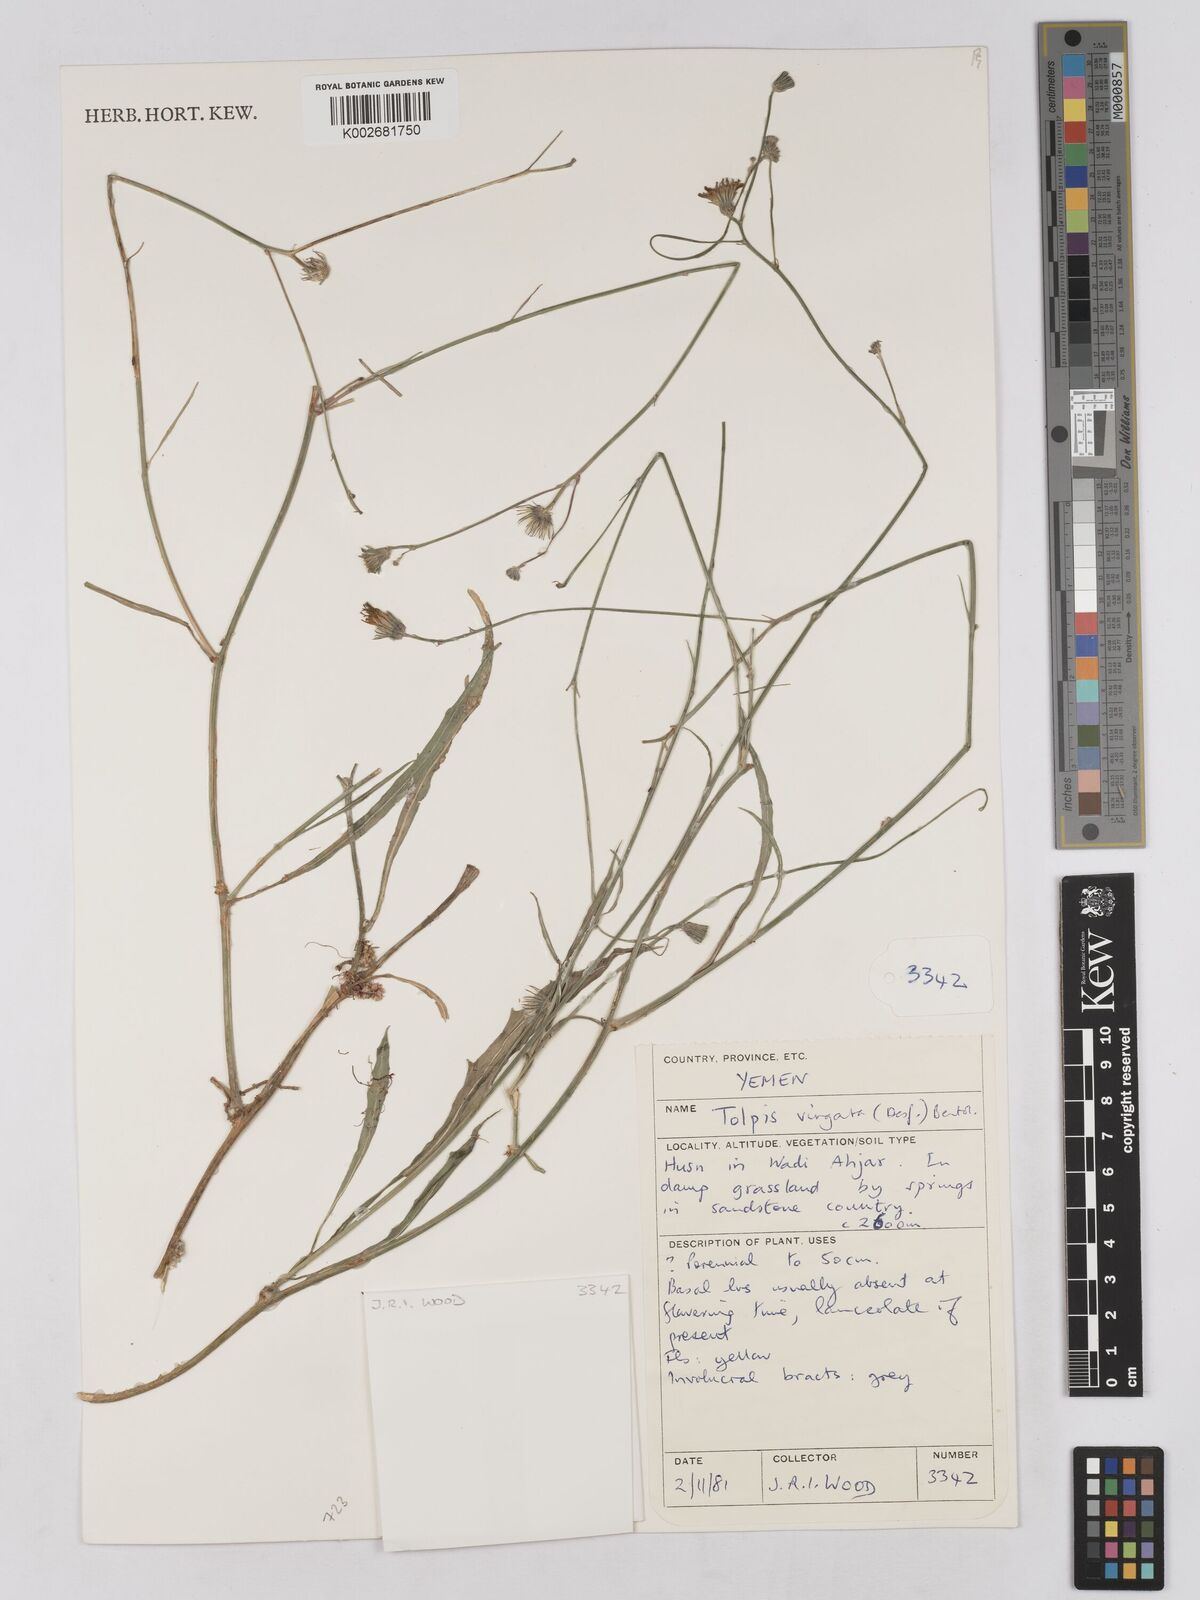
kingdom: Plantae
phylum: Tracheophyta
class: Magnoliopsida
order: Asterales
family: Asteraceae
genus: Tolpis
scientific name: Tolpis virgata
